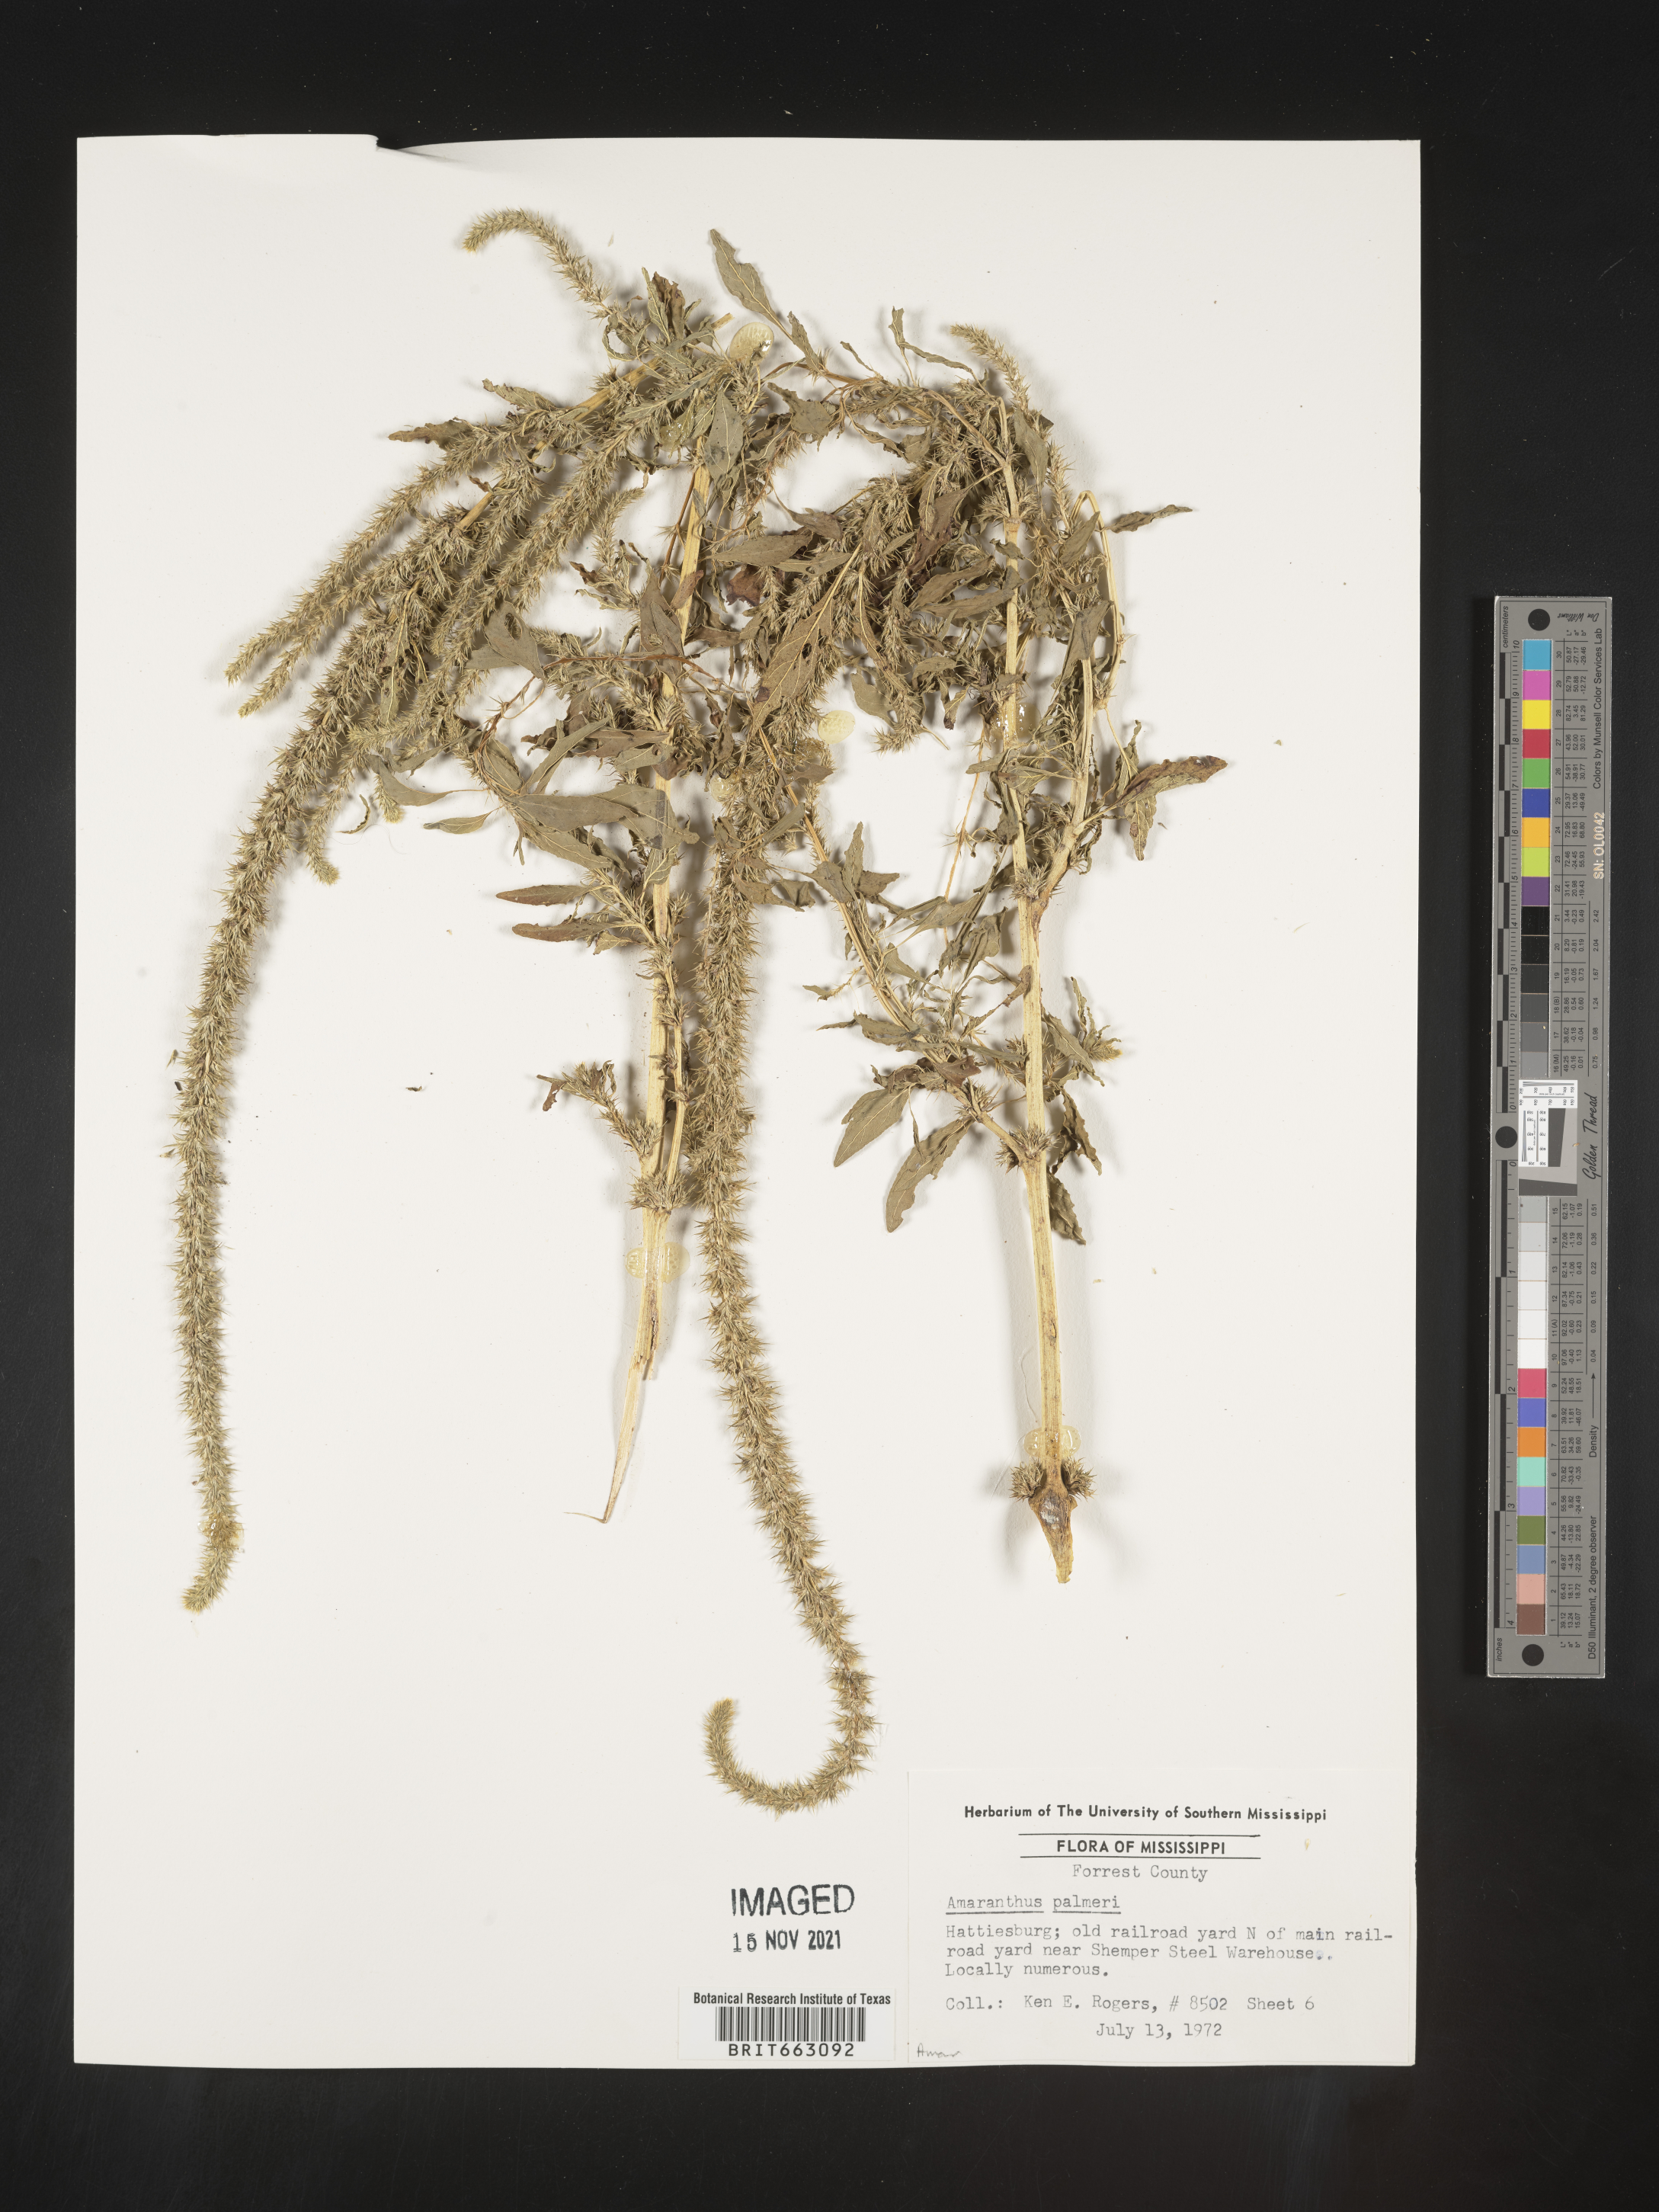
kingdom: Plantae
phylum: Tracheophyta
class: Magnoliopsida
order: Caryophyllales
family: Amaranthaceae
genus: Amaranthus
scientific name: Amaranthus palmeri
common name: Dioecious amaranth
